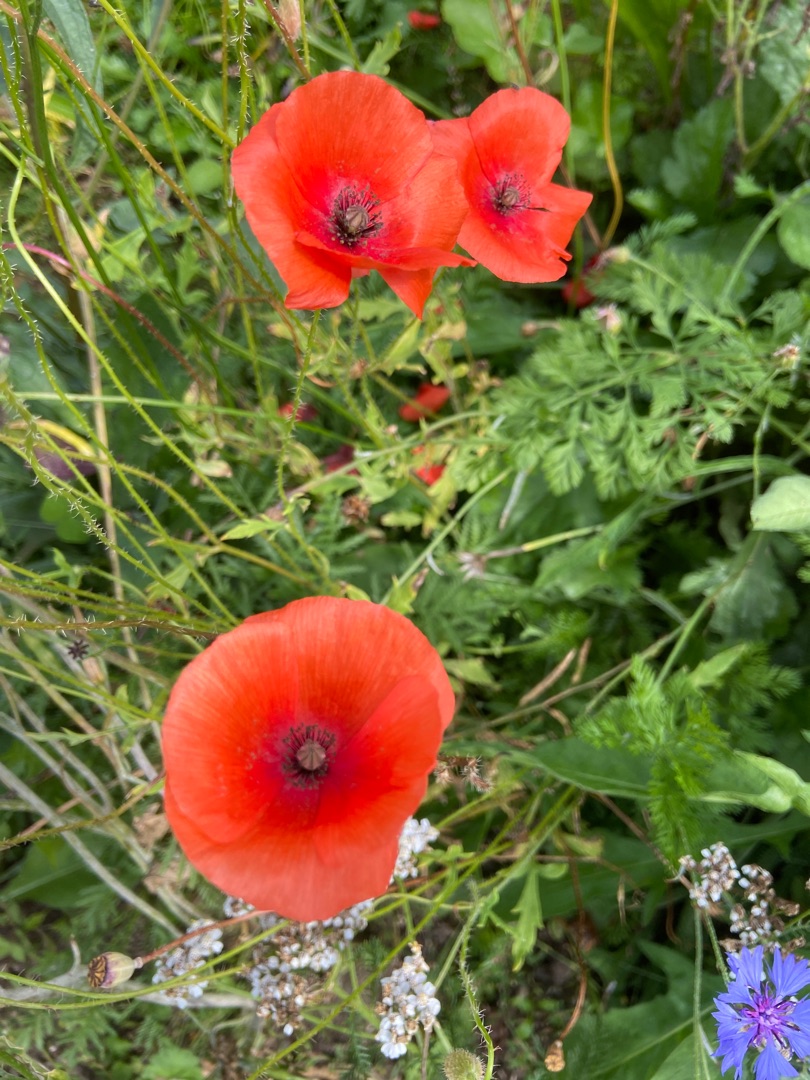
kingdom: Plantae
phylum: Tracheophyta
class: Magnoliopsida
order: Ranunculales
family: Papaveraceae
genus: Papaver
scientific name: Papaver rhoeas
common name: Korn-valmue
